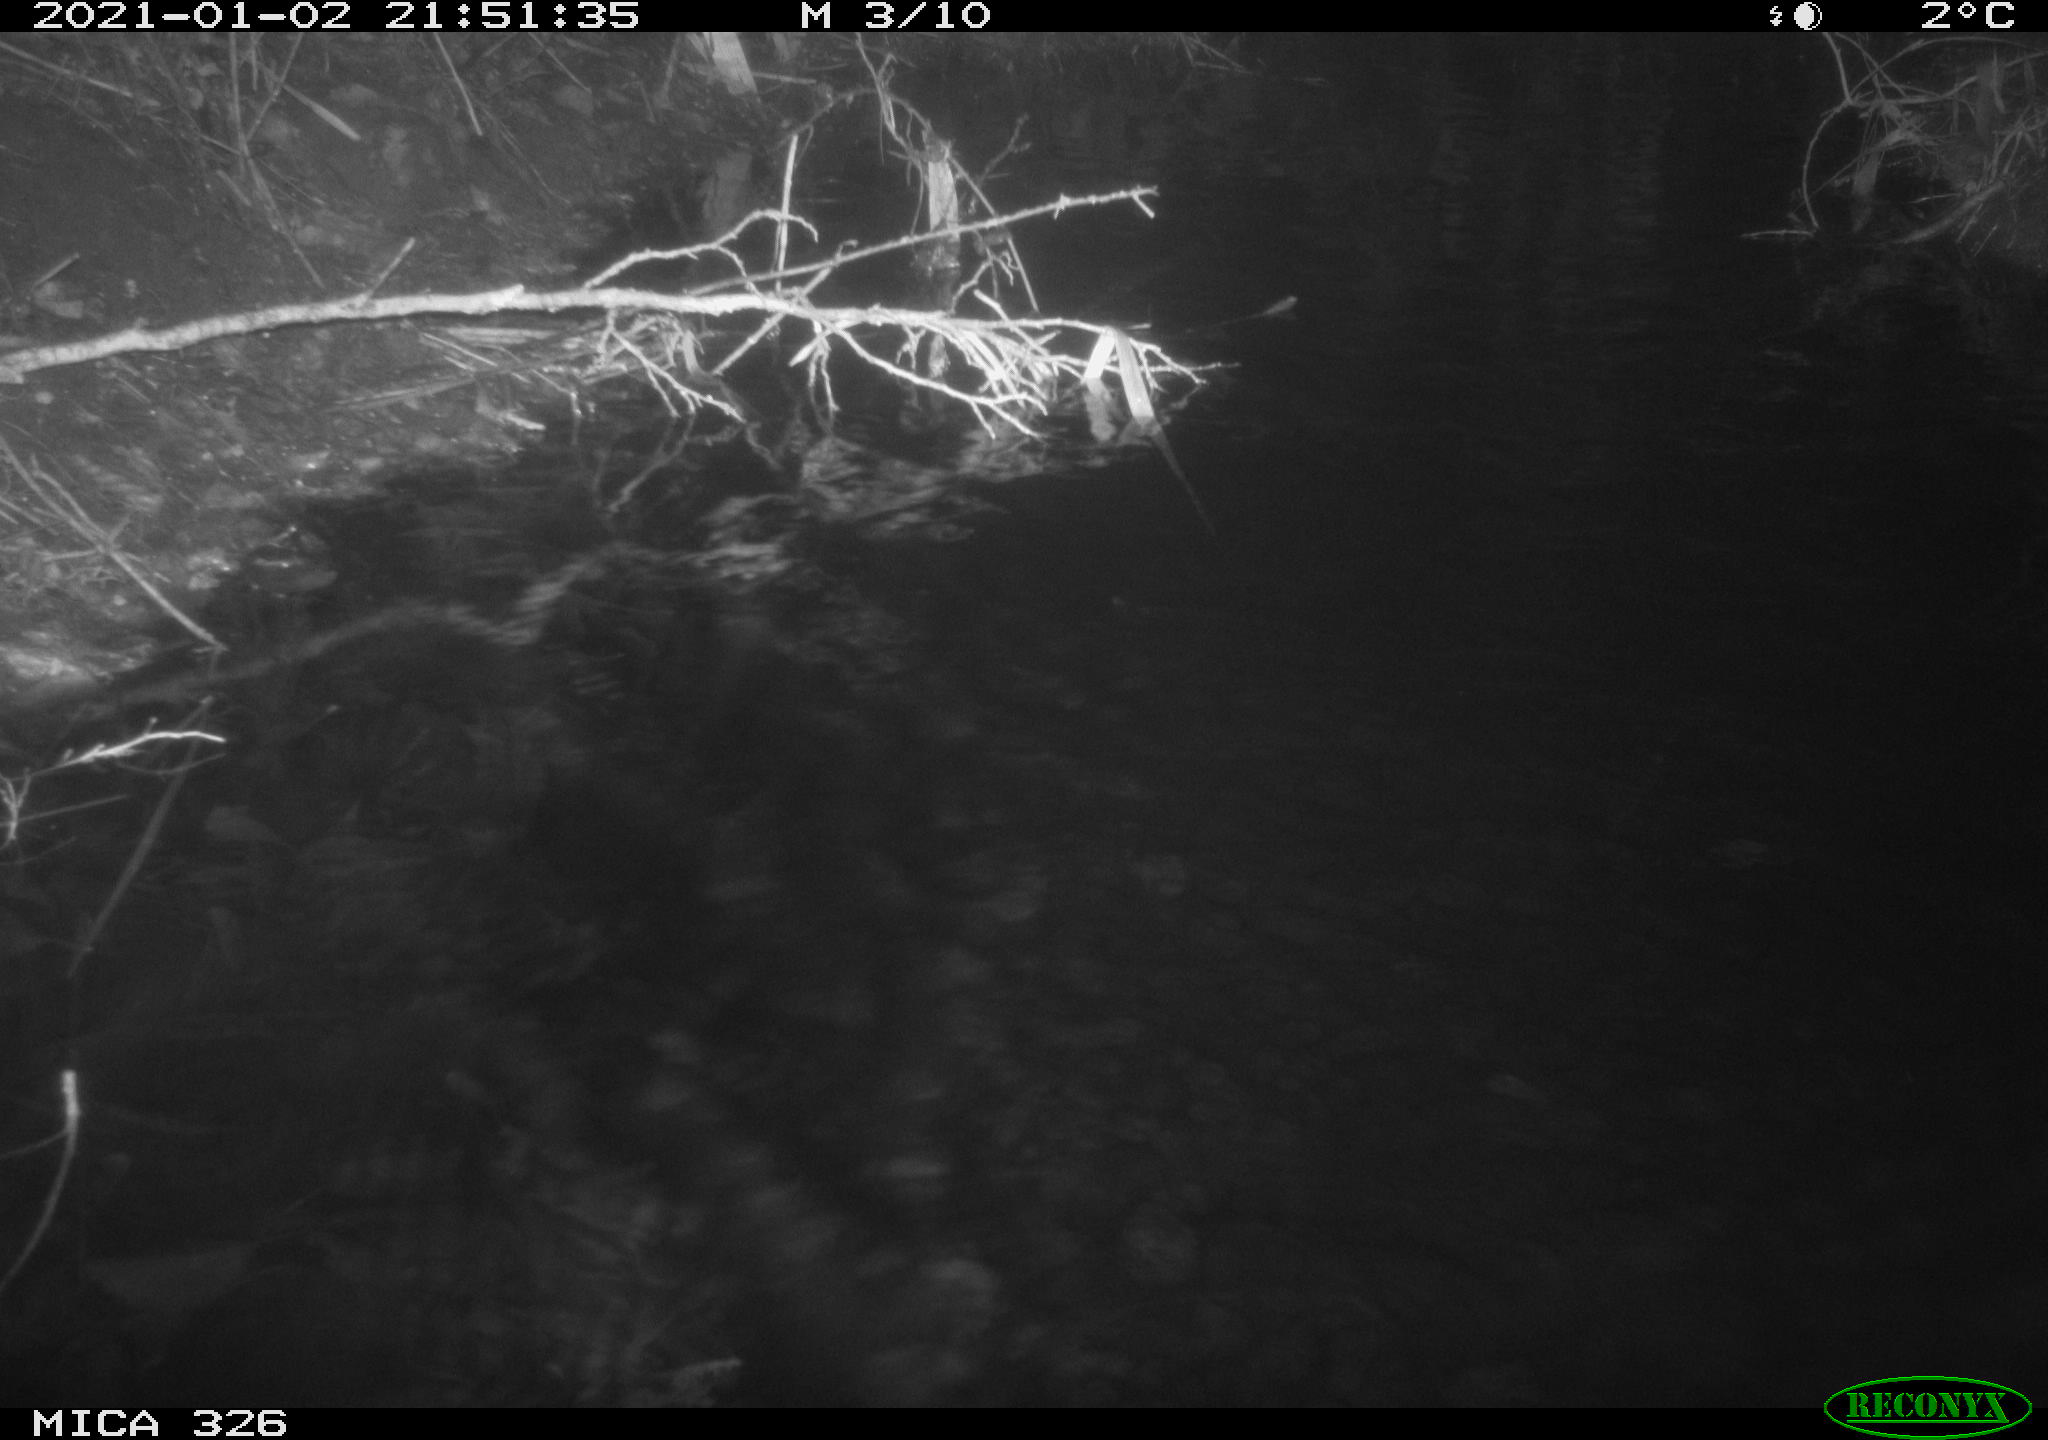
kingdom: Animalia
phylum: Chordata
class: Mammalia
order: Rodentia
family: Cricetidae
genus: Ondatra
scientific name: Ondatra zibethicus
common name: Muskrat
